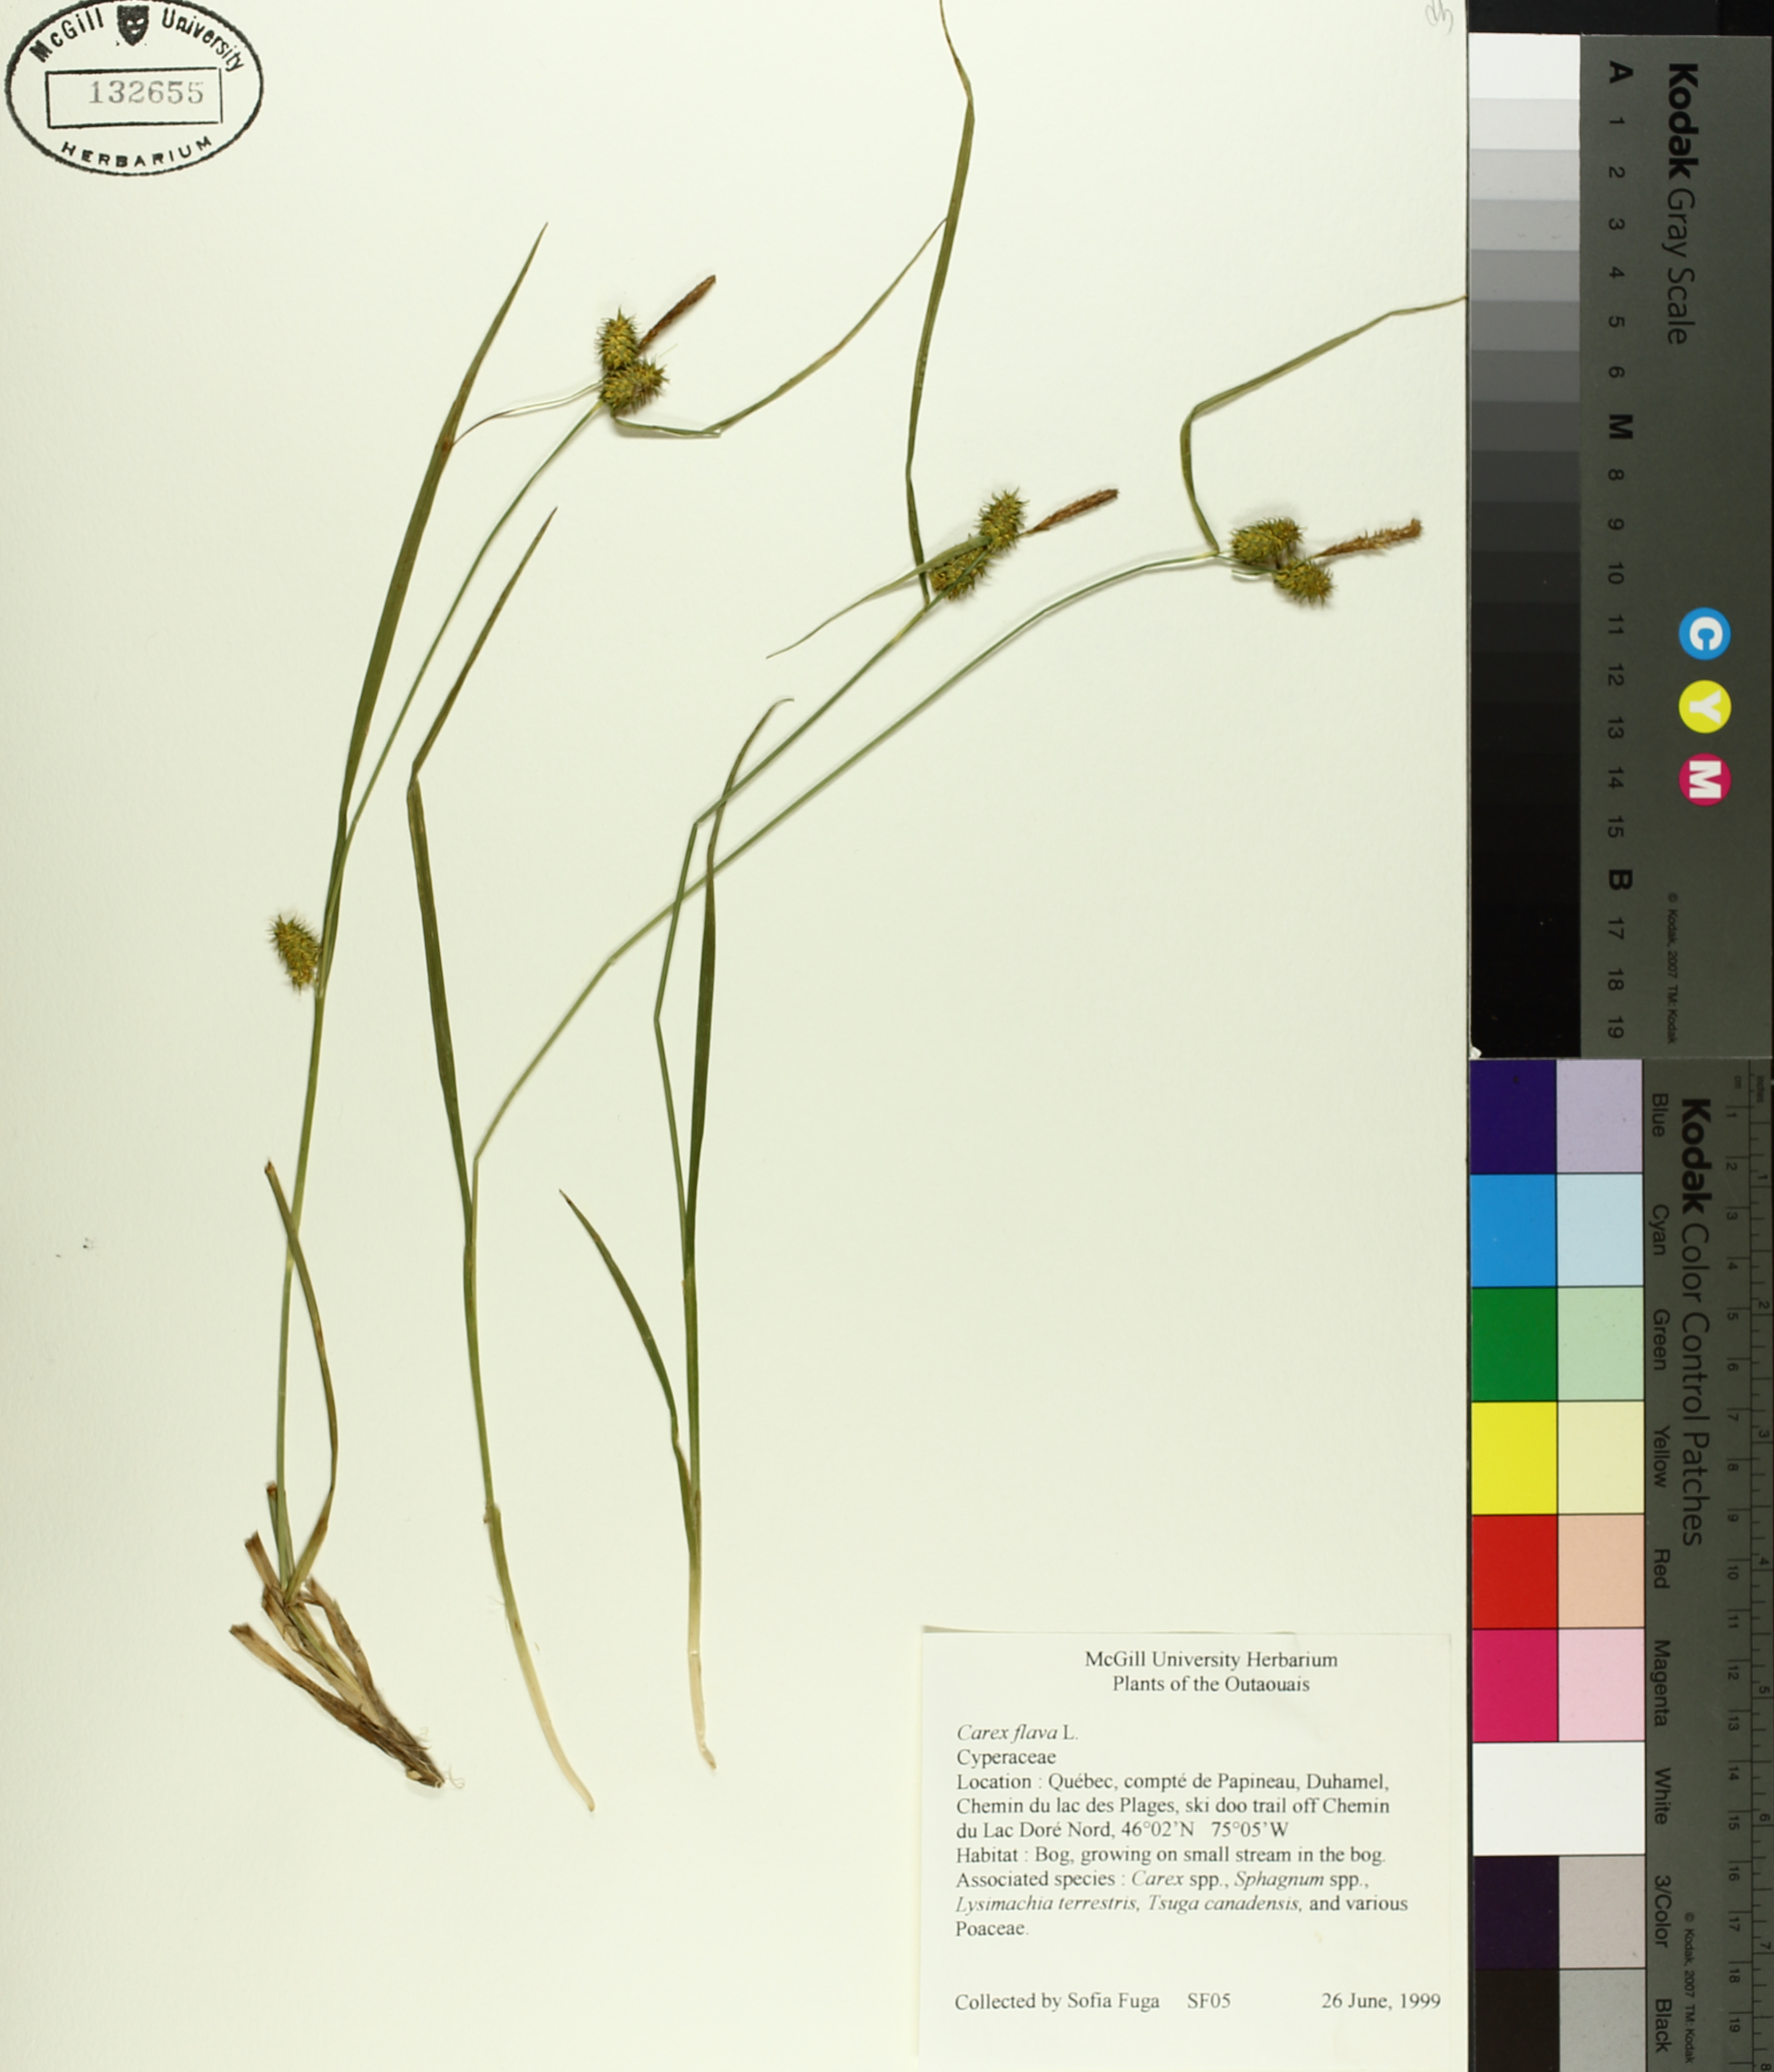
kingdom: Plantae
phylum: Tracheophyta
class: Liliopsida
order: Poales
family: Cyperaceae
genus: Carex
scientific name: Carex flava
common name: Large yellow-sedge
